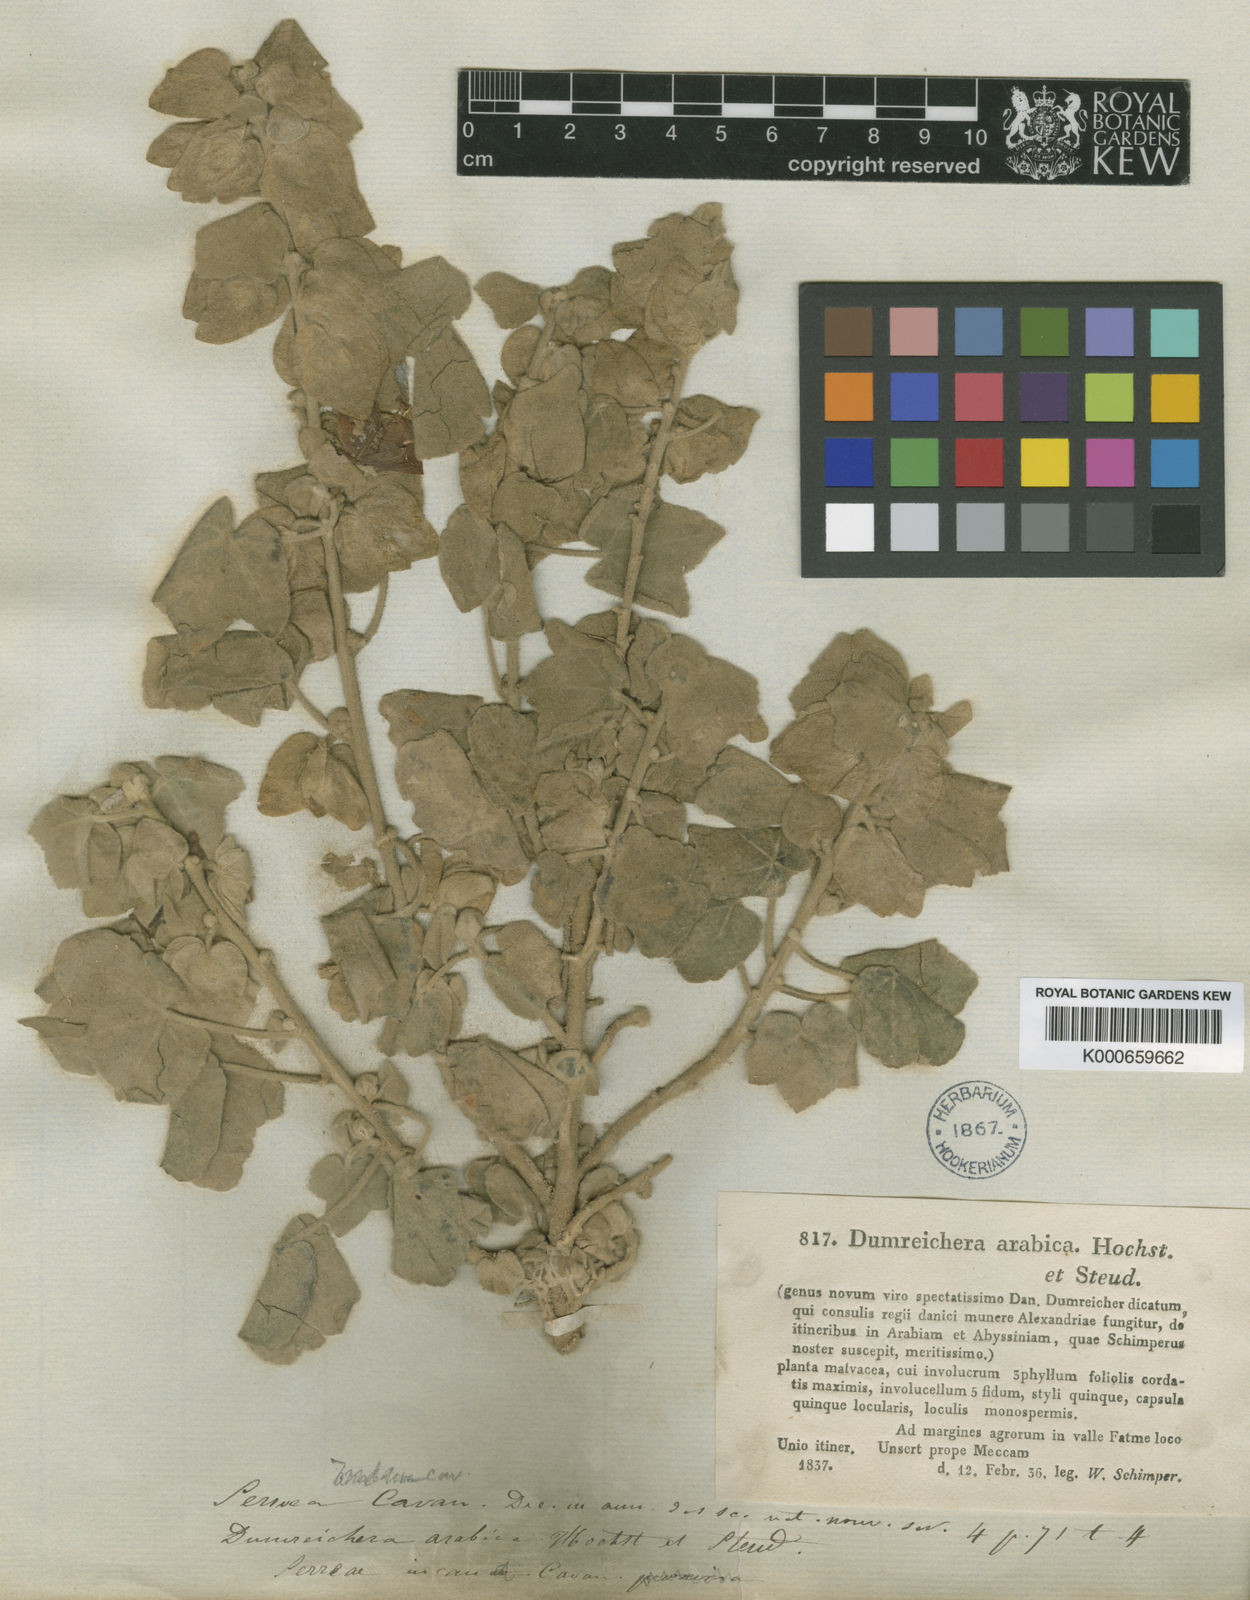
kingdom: Plantae
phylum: Tracheophyta
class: Magnoliopsida
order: Malvales
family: Malvaceae
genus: Senra
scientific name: Senra incana
